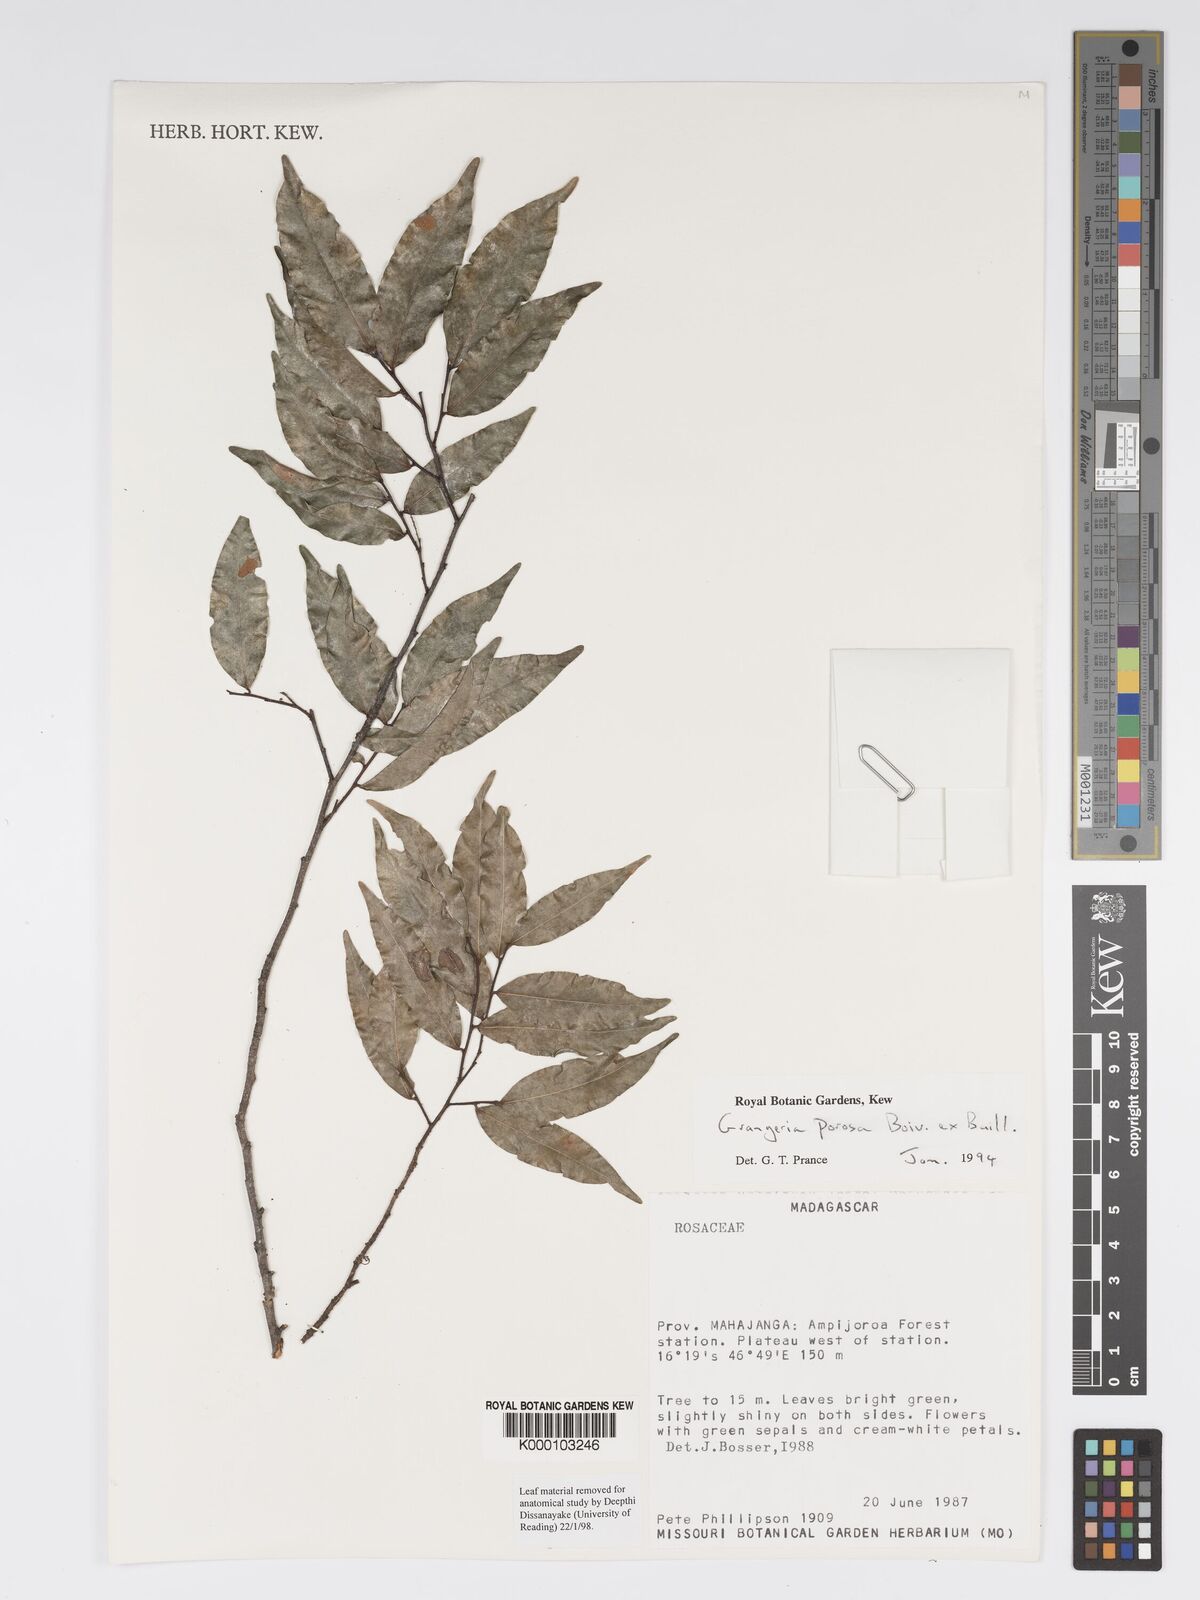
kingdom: Plantae
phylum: Tracheophyta
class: Magnoliopsida
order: Malpighiales
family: Chrysobalanaceae
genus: Grangeria
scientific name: Grangeria porosa
